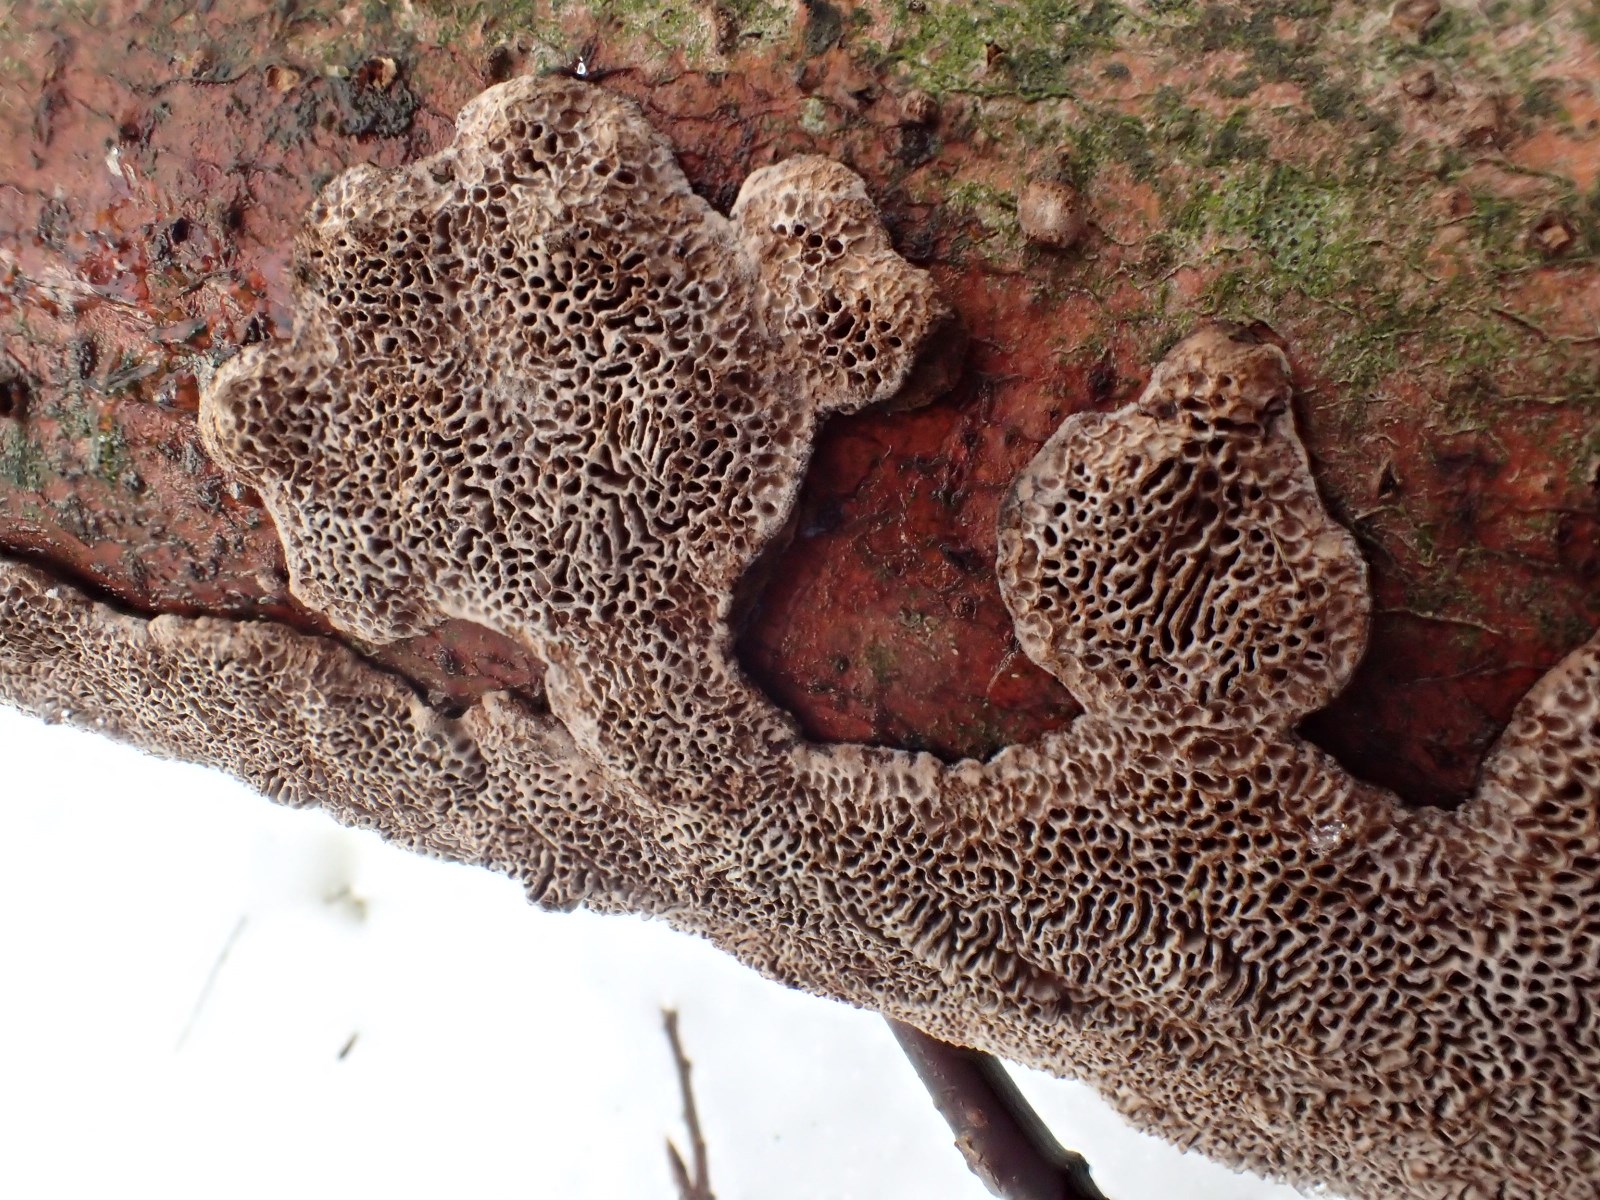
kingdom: Fungi
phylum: Basidiomycota
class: Agaricomycetes
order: Polyporales
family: Polyporaceae
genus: Podofomes
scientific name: Podofomes mollis
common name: blød begporesvamp
